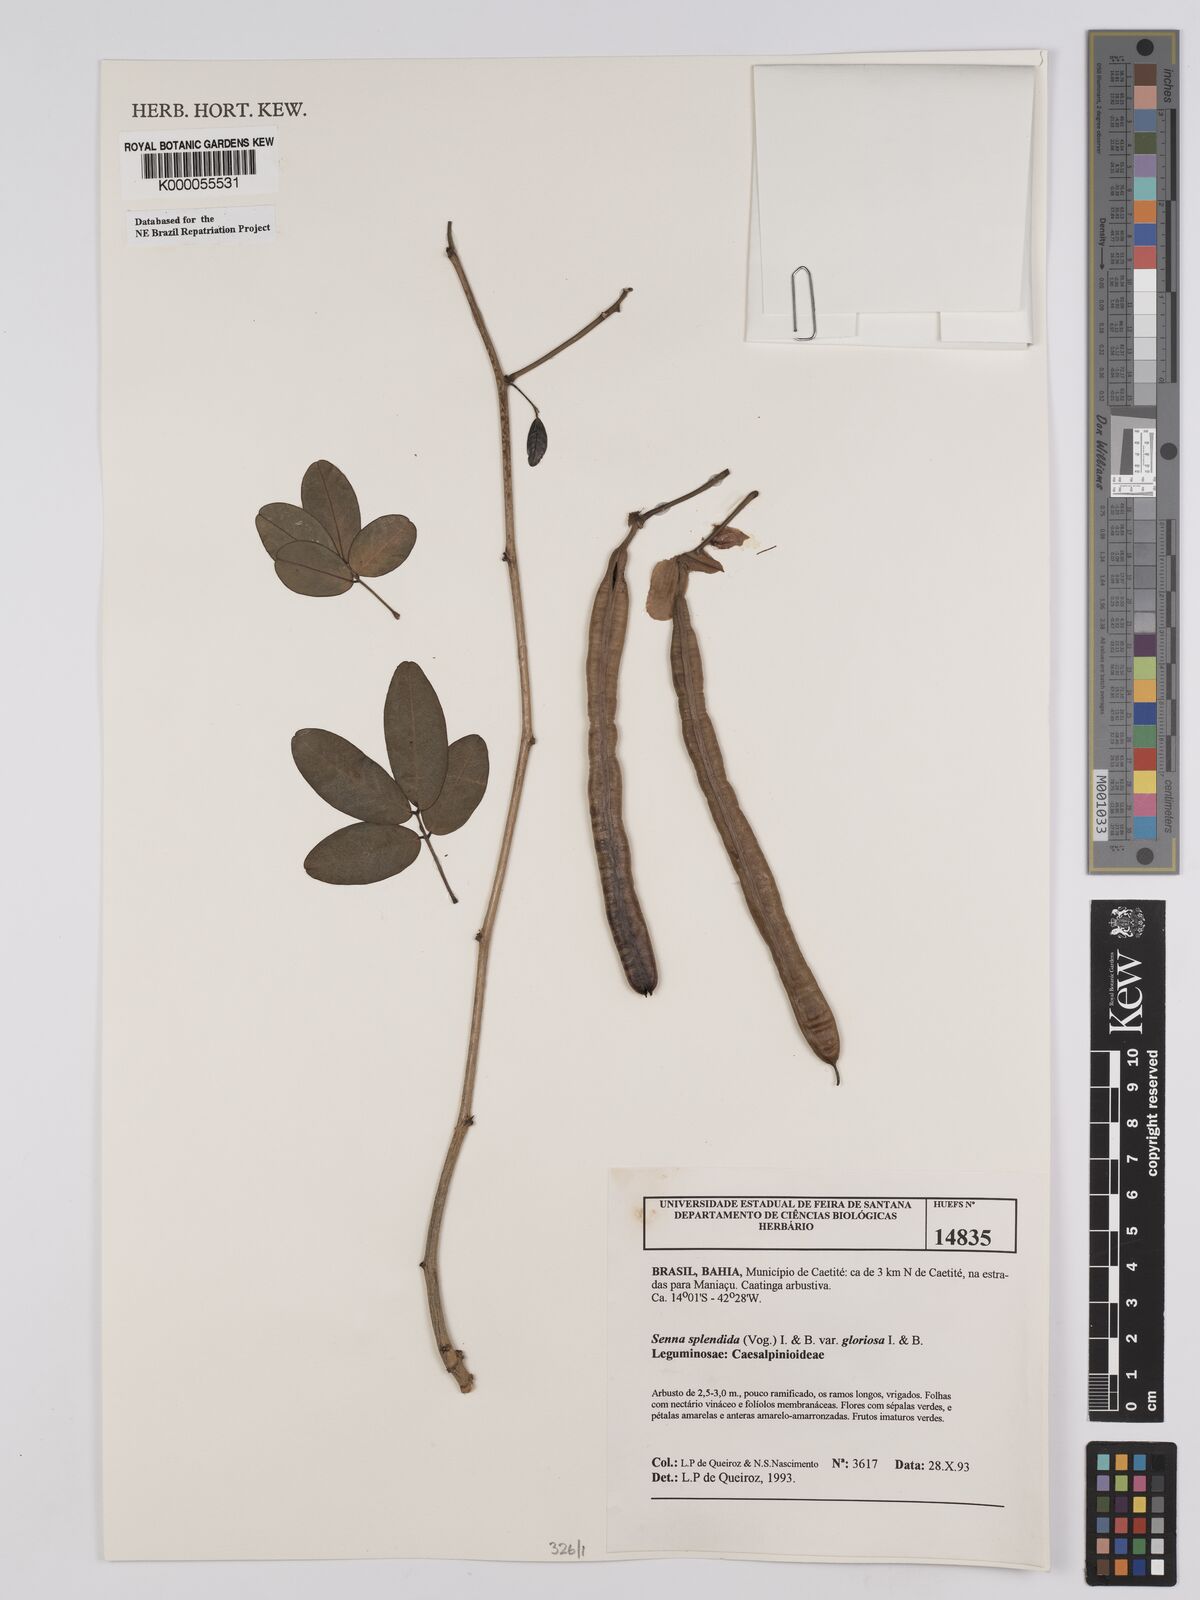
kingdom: Plantae
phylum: Tracheophyta
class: Magnoliopsida
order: Fabales
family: Fabaceae
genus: Chamaecrista
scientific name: Chamaecrista
